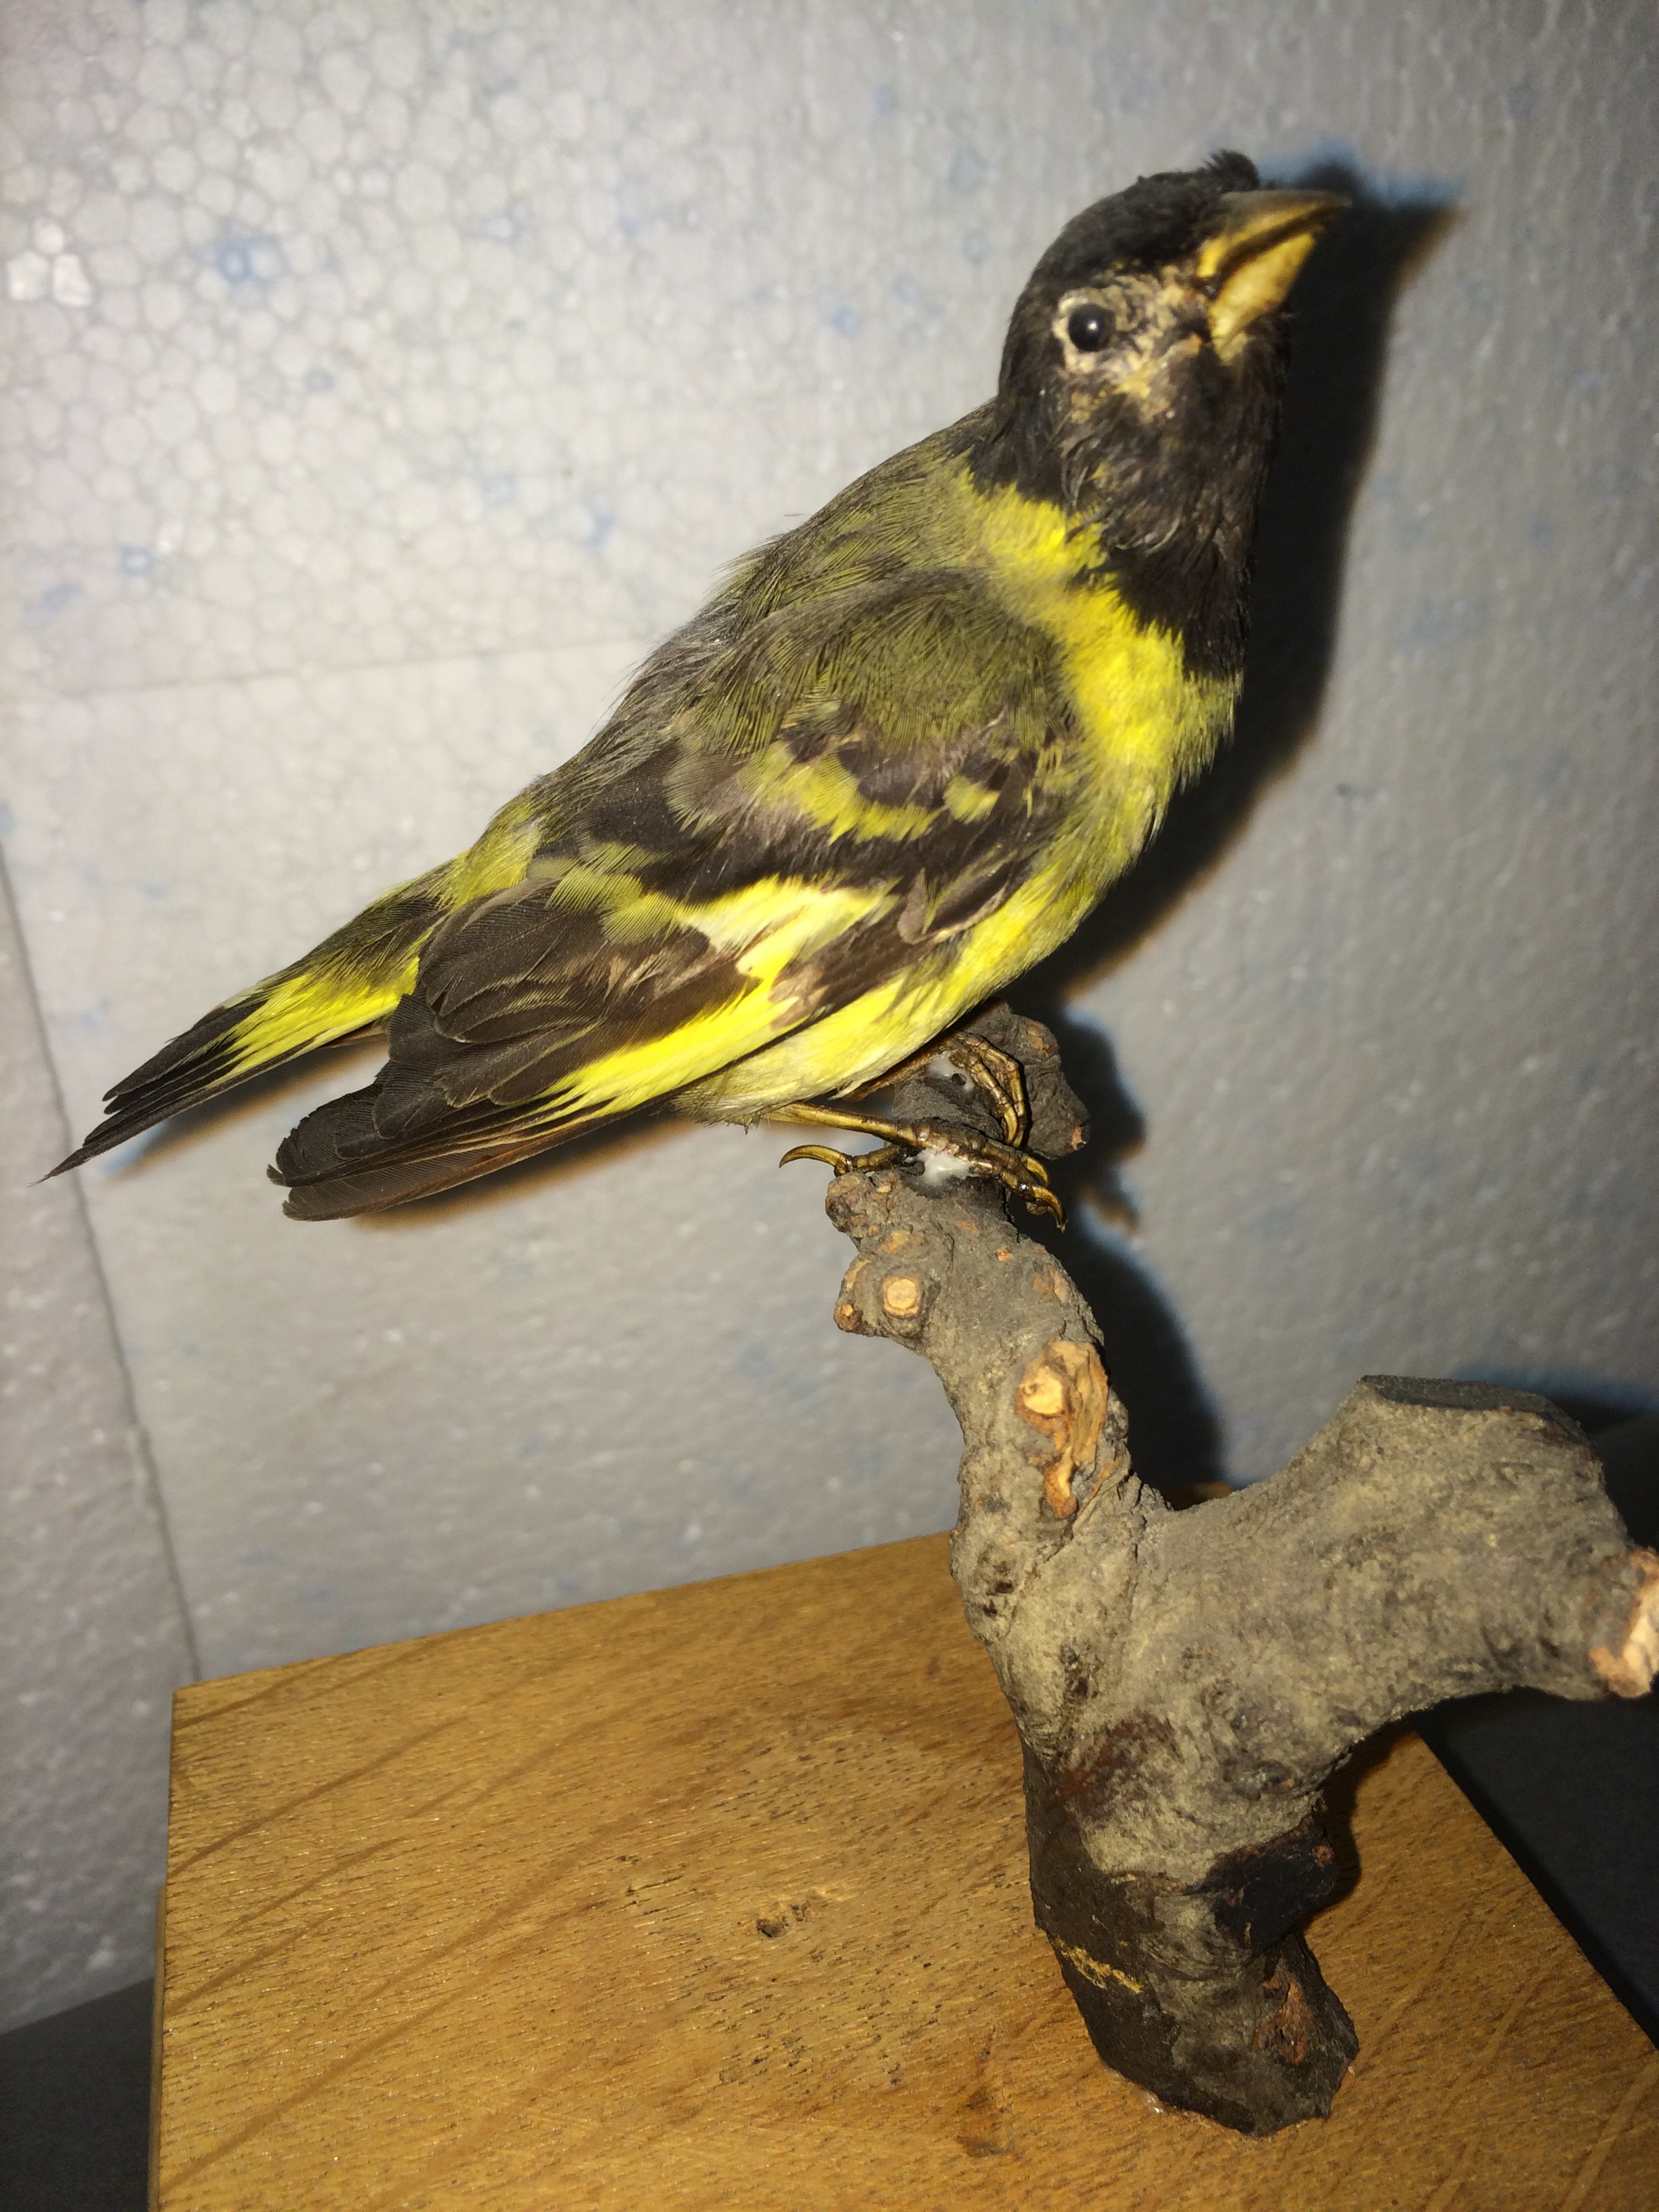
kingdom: Animalia
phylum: Chordata
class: Aves
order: Passeriformes
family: Fringillidae
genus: Spinus
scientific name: Spinus notatus
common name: Black-headed siskin
